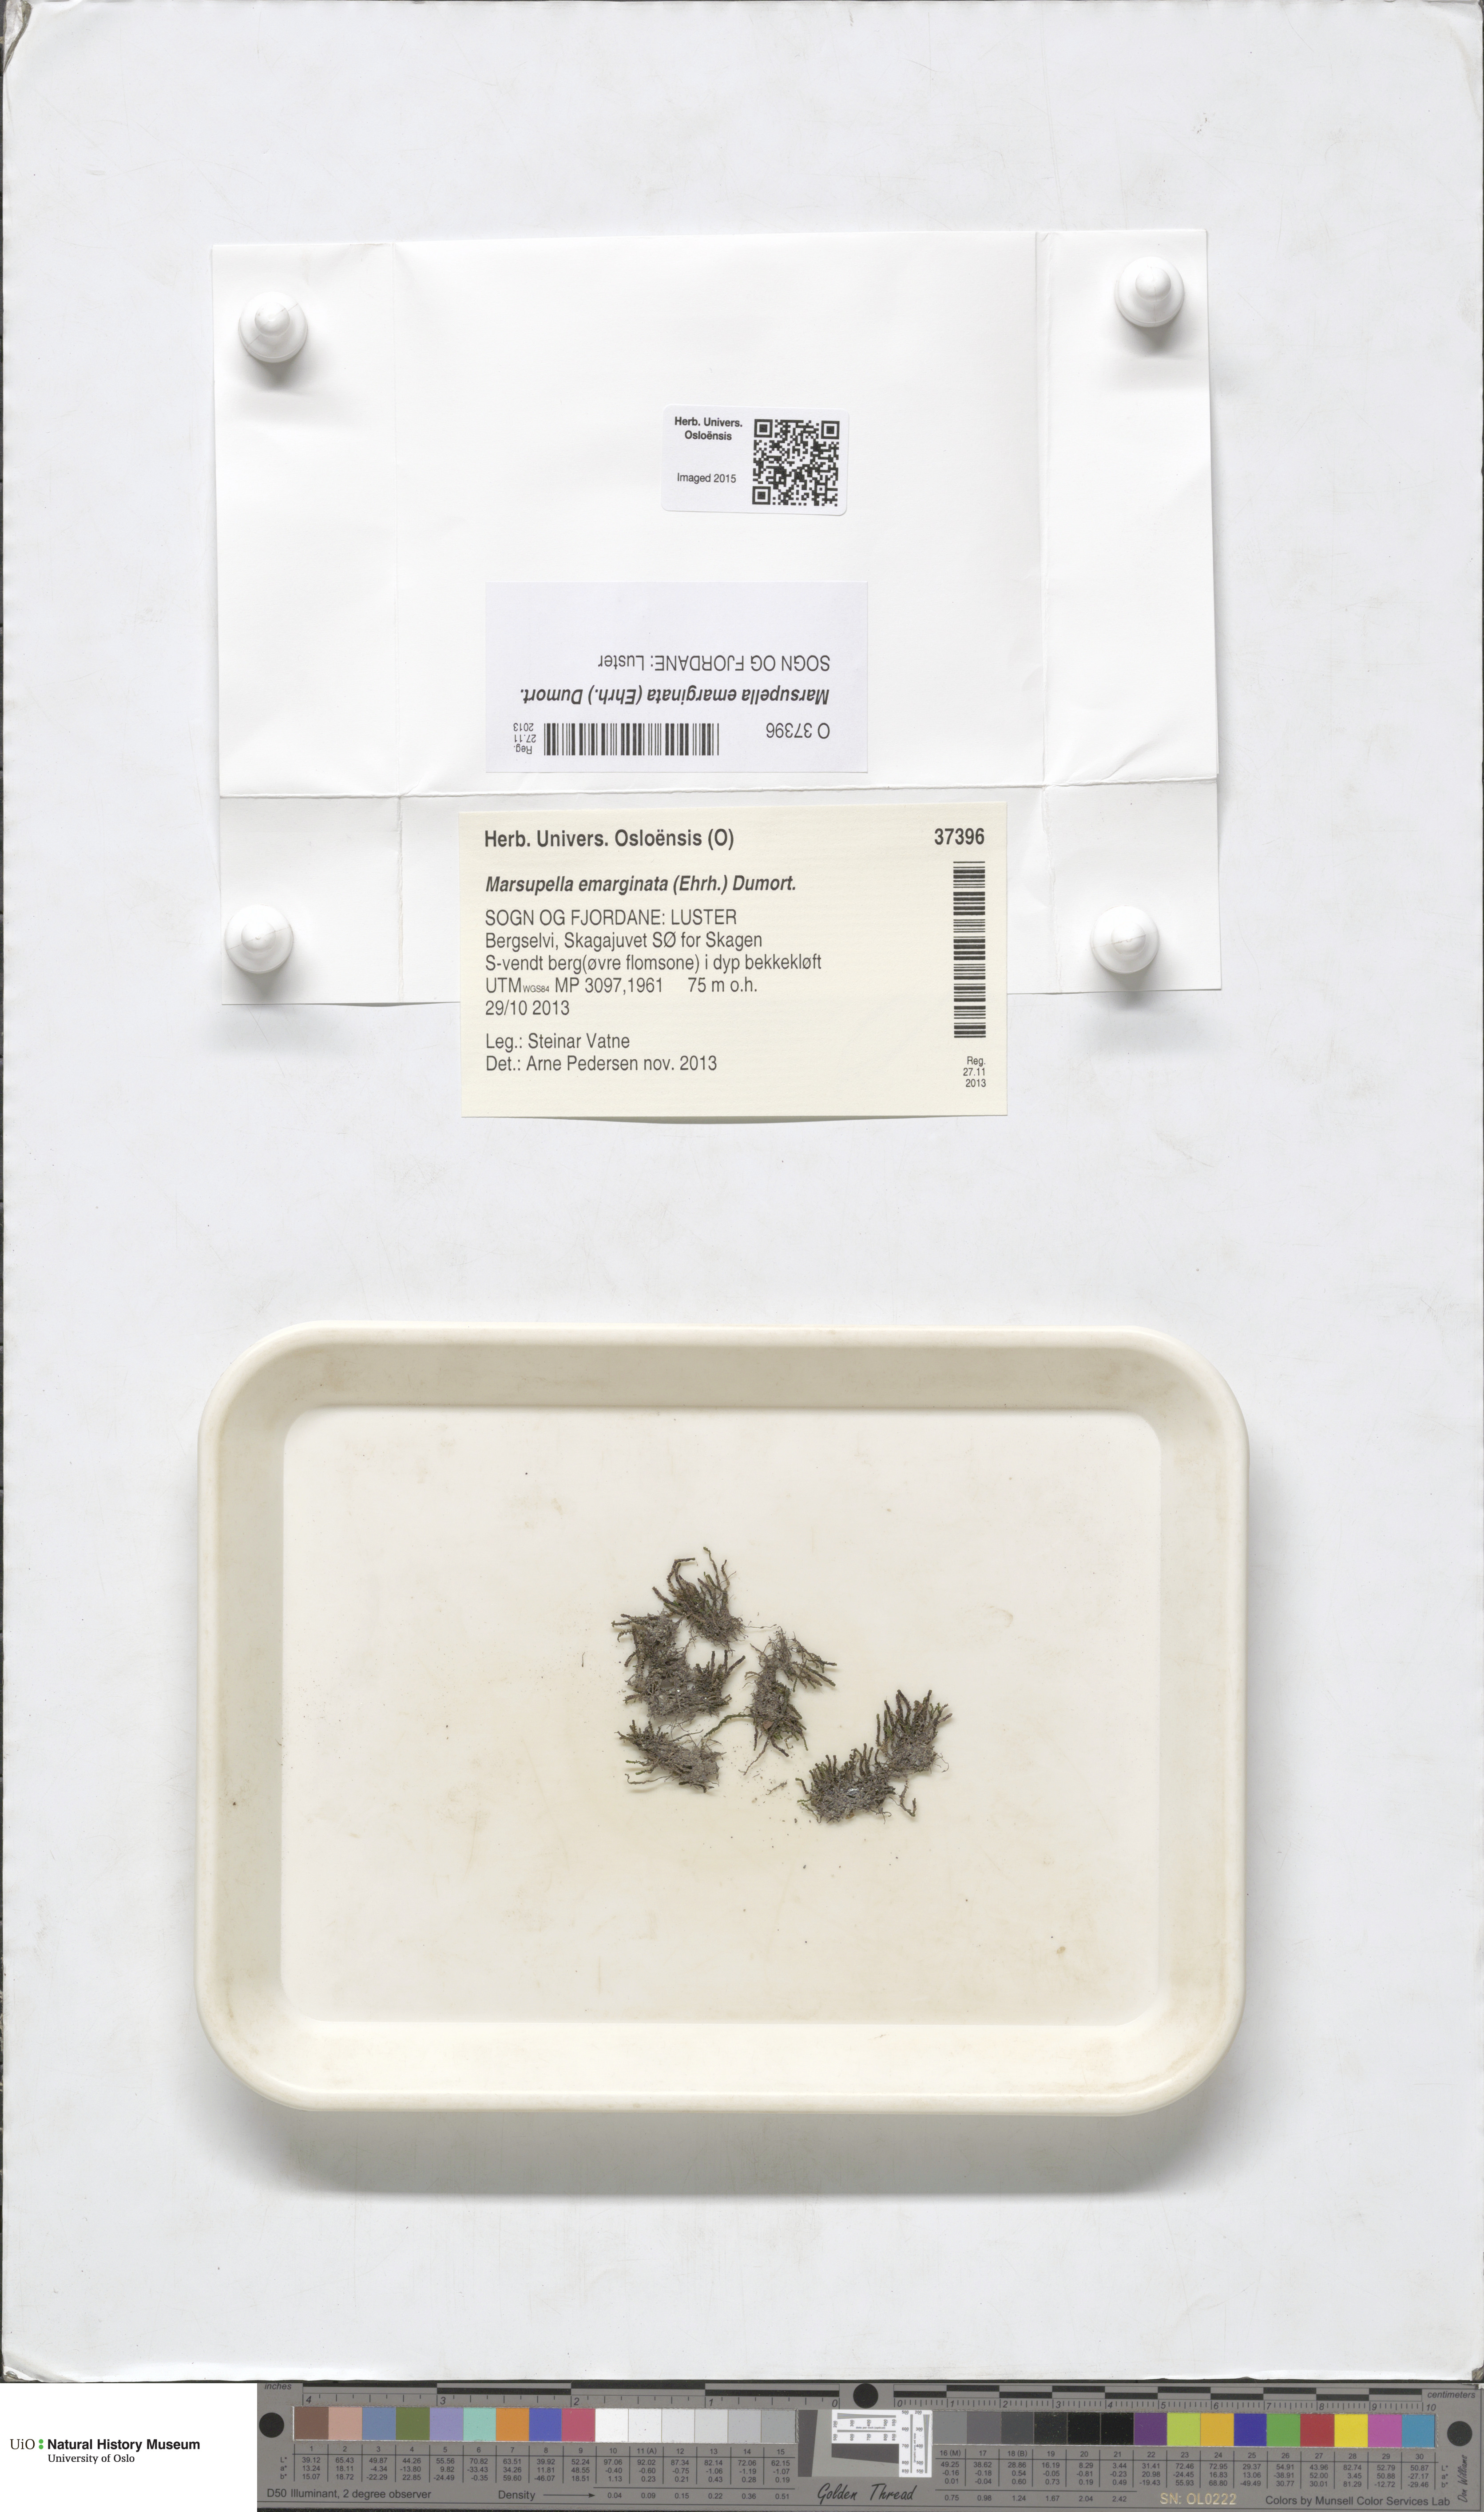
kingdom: Plantae
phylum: Marchantiophyta
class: Jungermanniopsida
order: Jungermanniales
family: Gymnomitriaceae
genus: Marsupella
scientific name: Marsupella emarginata
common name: Notched rustwort
